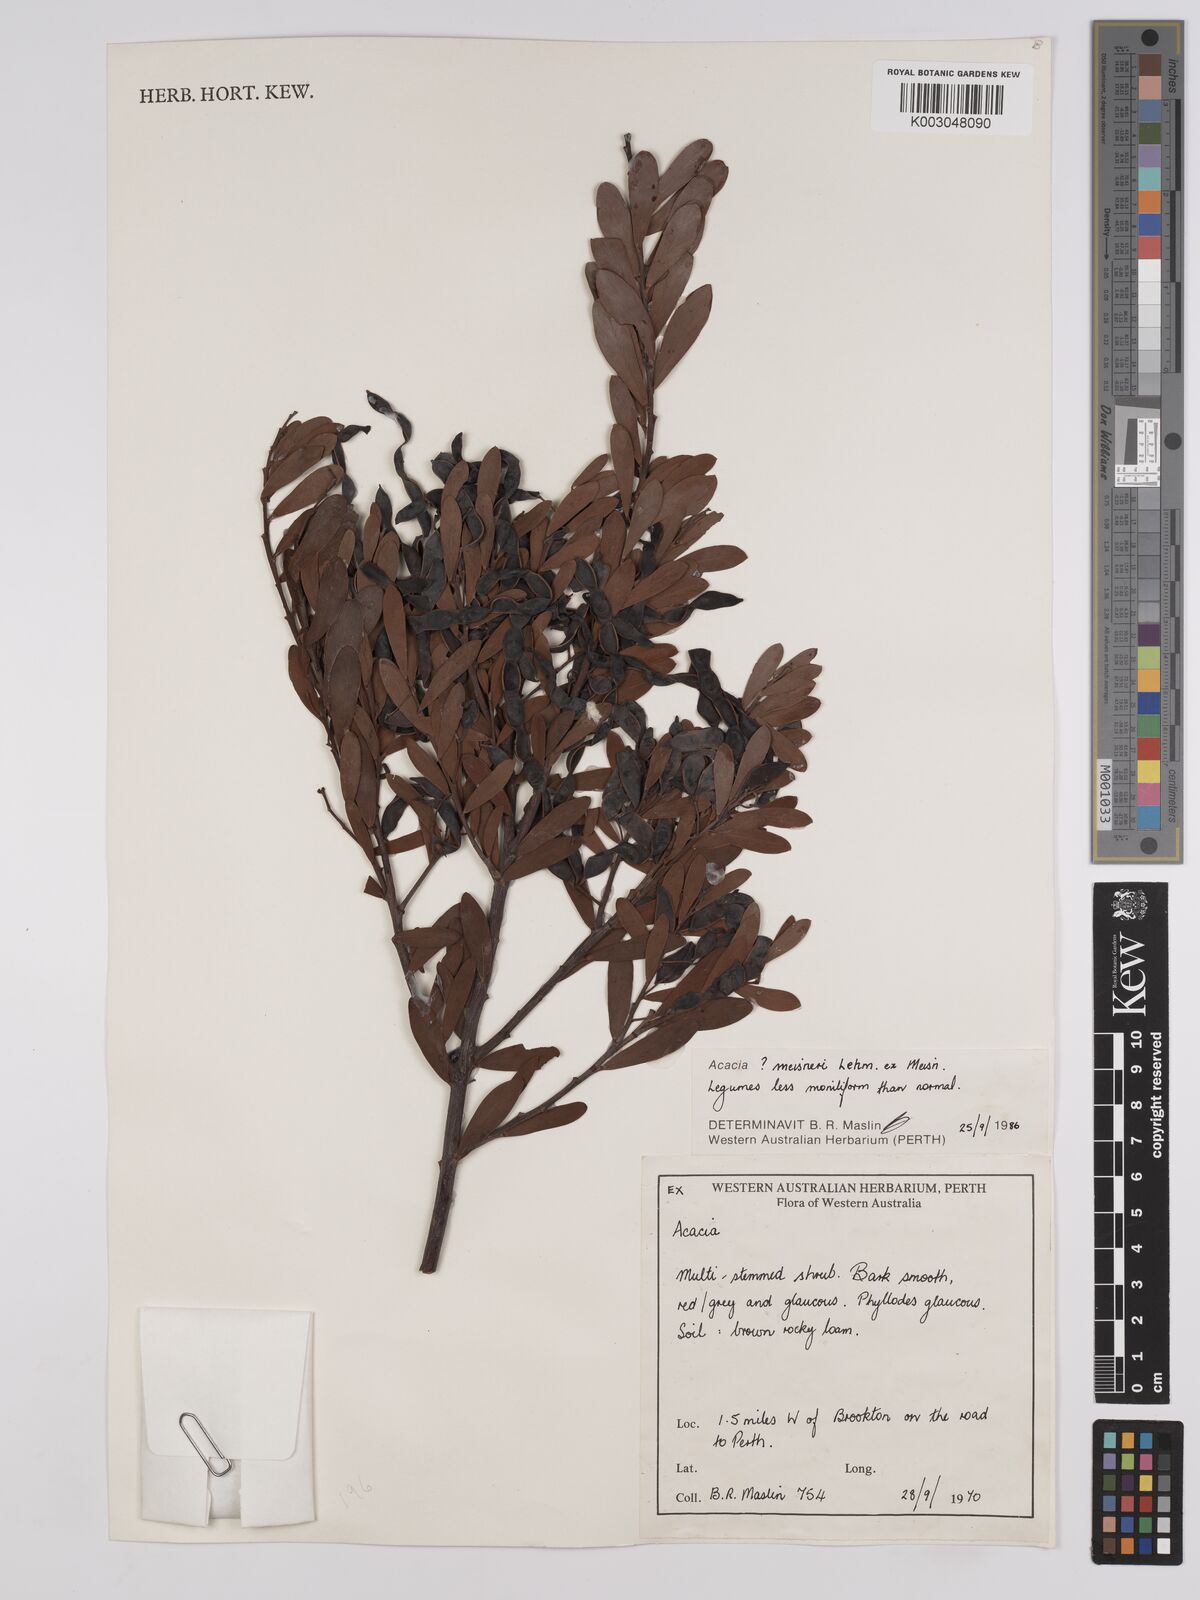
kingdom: Plantae
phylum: Tracheophyta
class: Magnoliopsida
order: Fabales
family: Fabaceae
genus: Acacia
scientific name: Acacia meisneri
